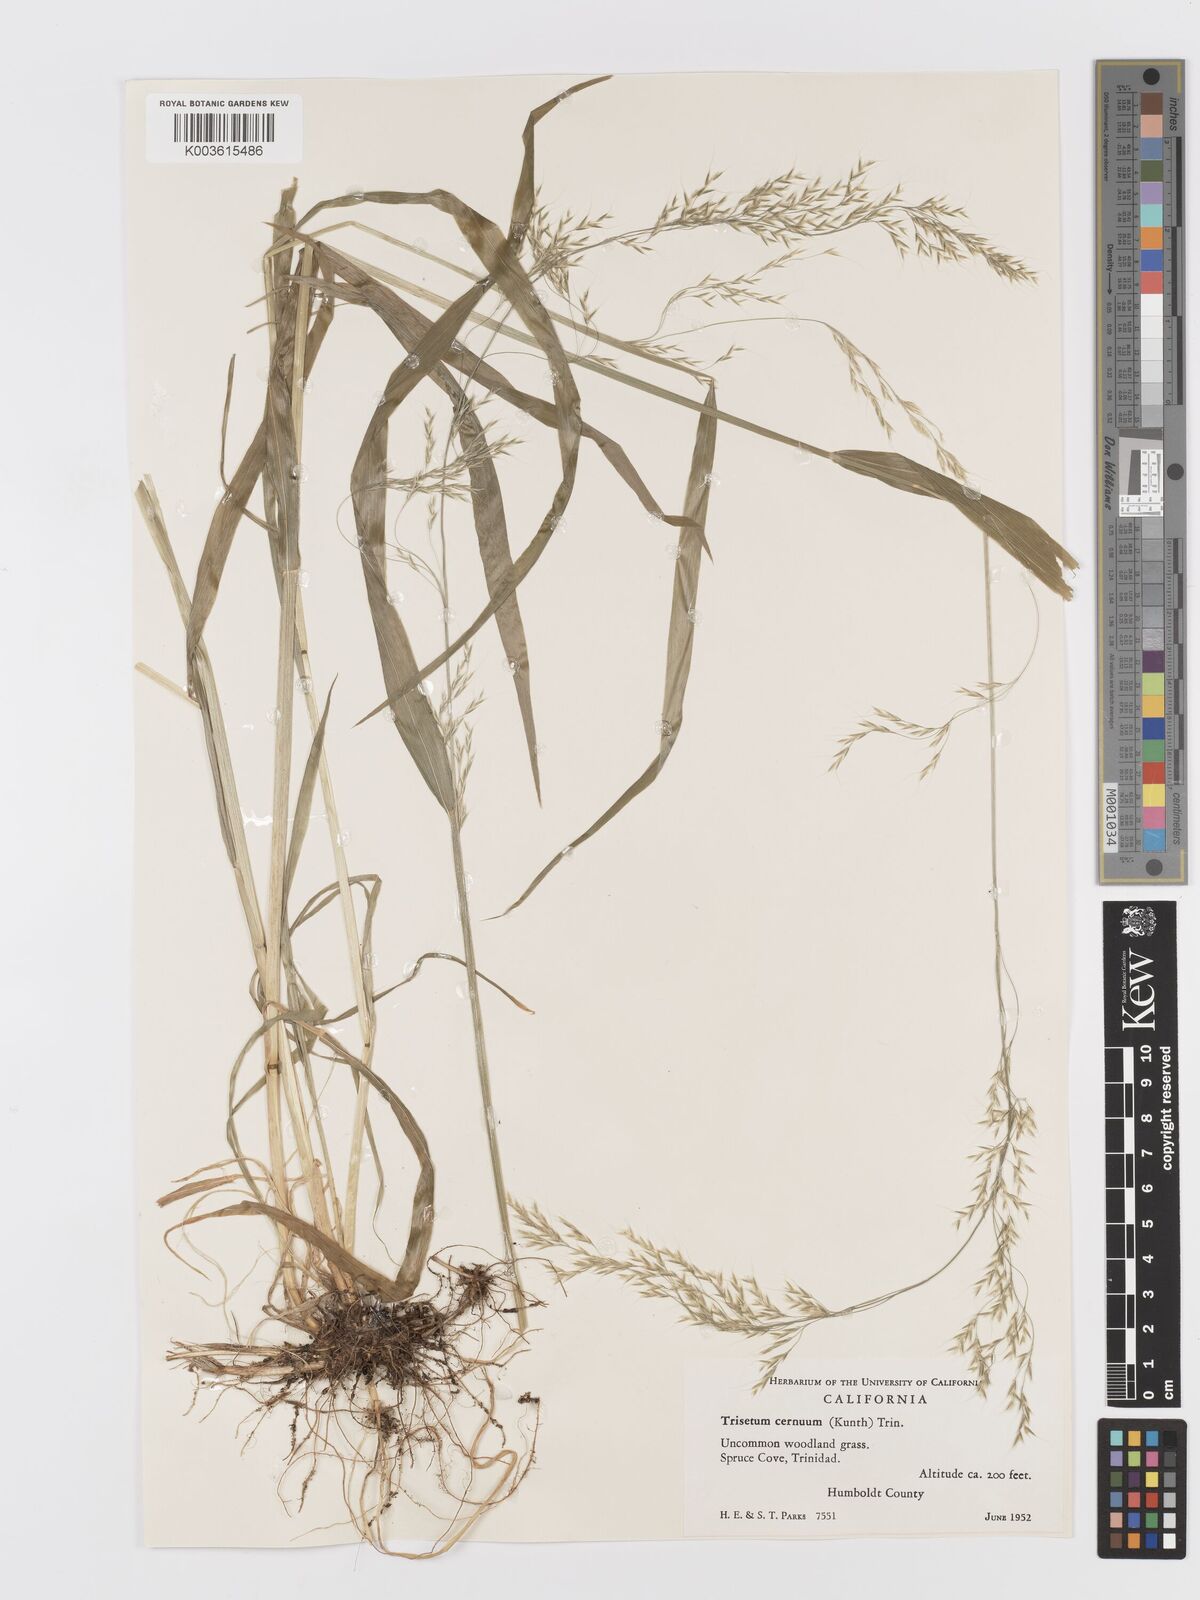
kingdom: Plantae
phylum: Tracheophyta
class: Liliopsida
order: Poales
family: Poaceae
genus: Graphephorum
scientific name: Graphephorum cernuum
